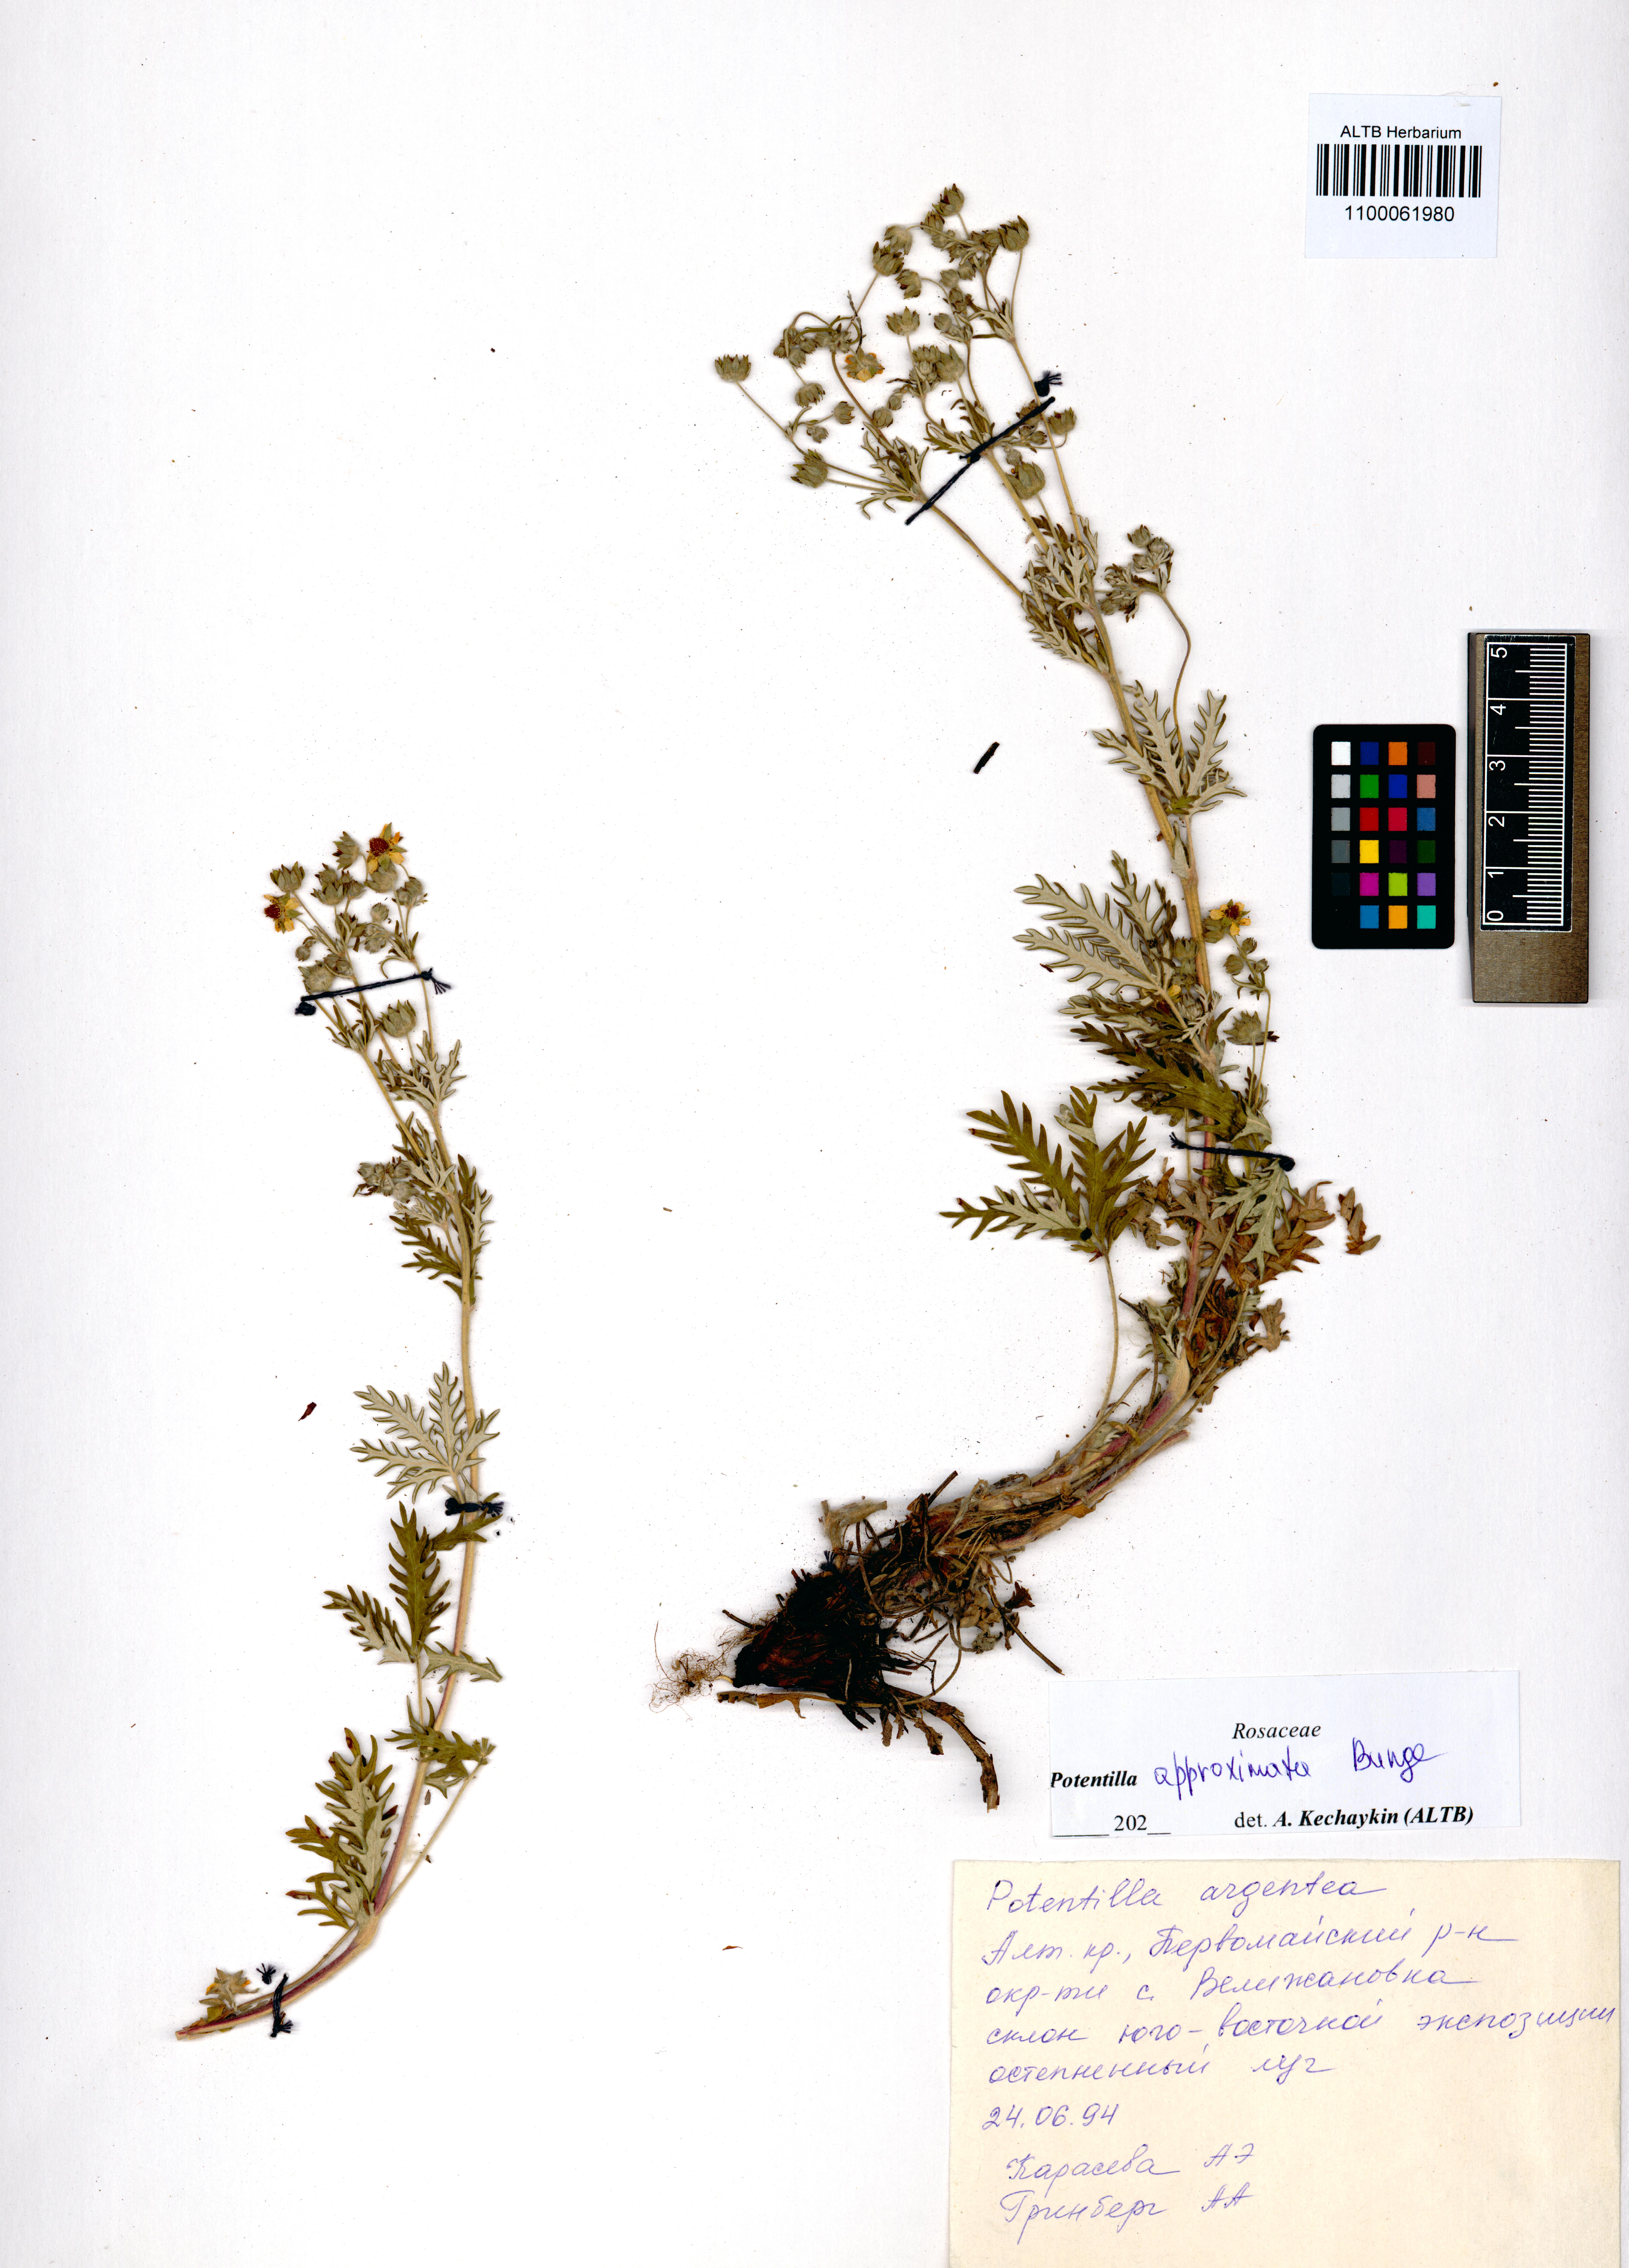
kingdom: Plantae
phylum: Tracheophyta
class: Magnoliopsida
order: Rosales
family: Rosaceae
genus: Potentilla
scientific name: Potentilla conferta
